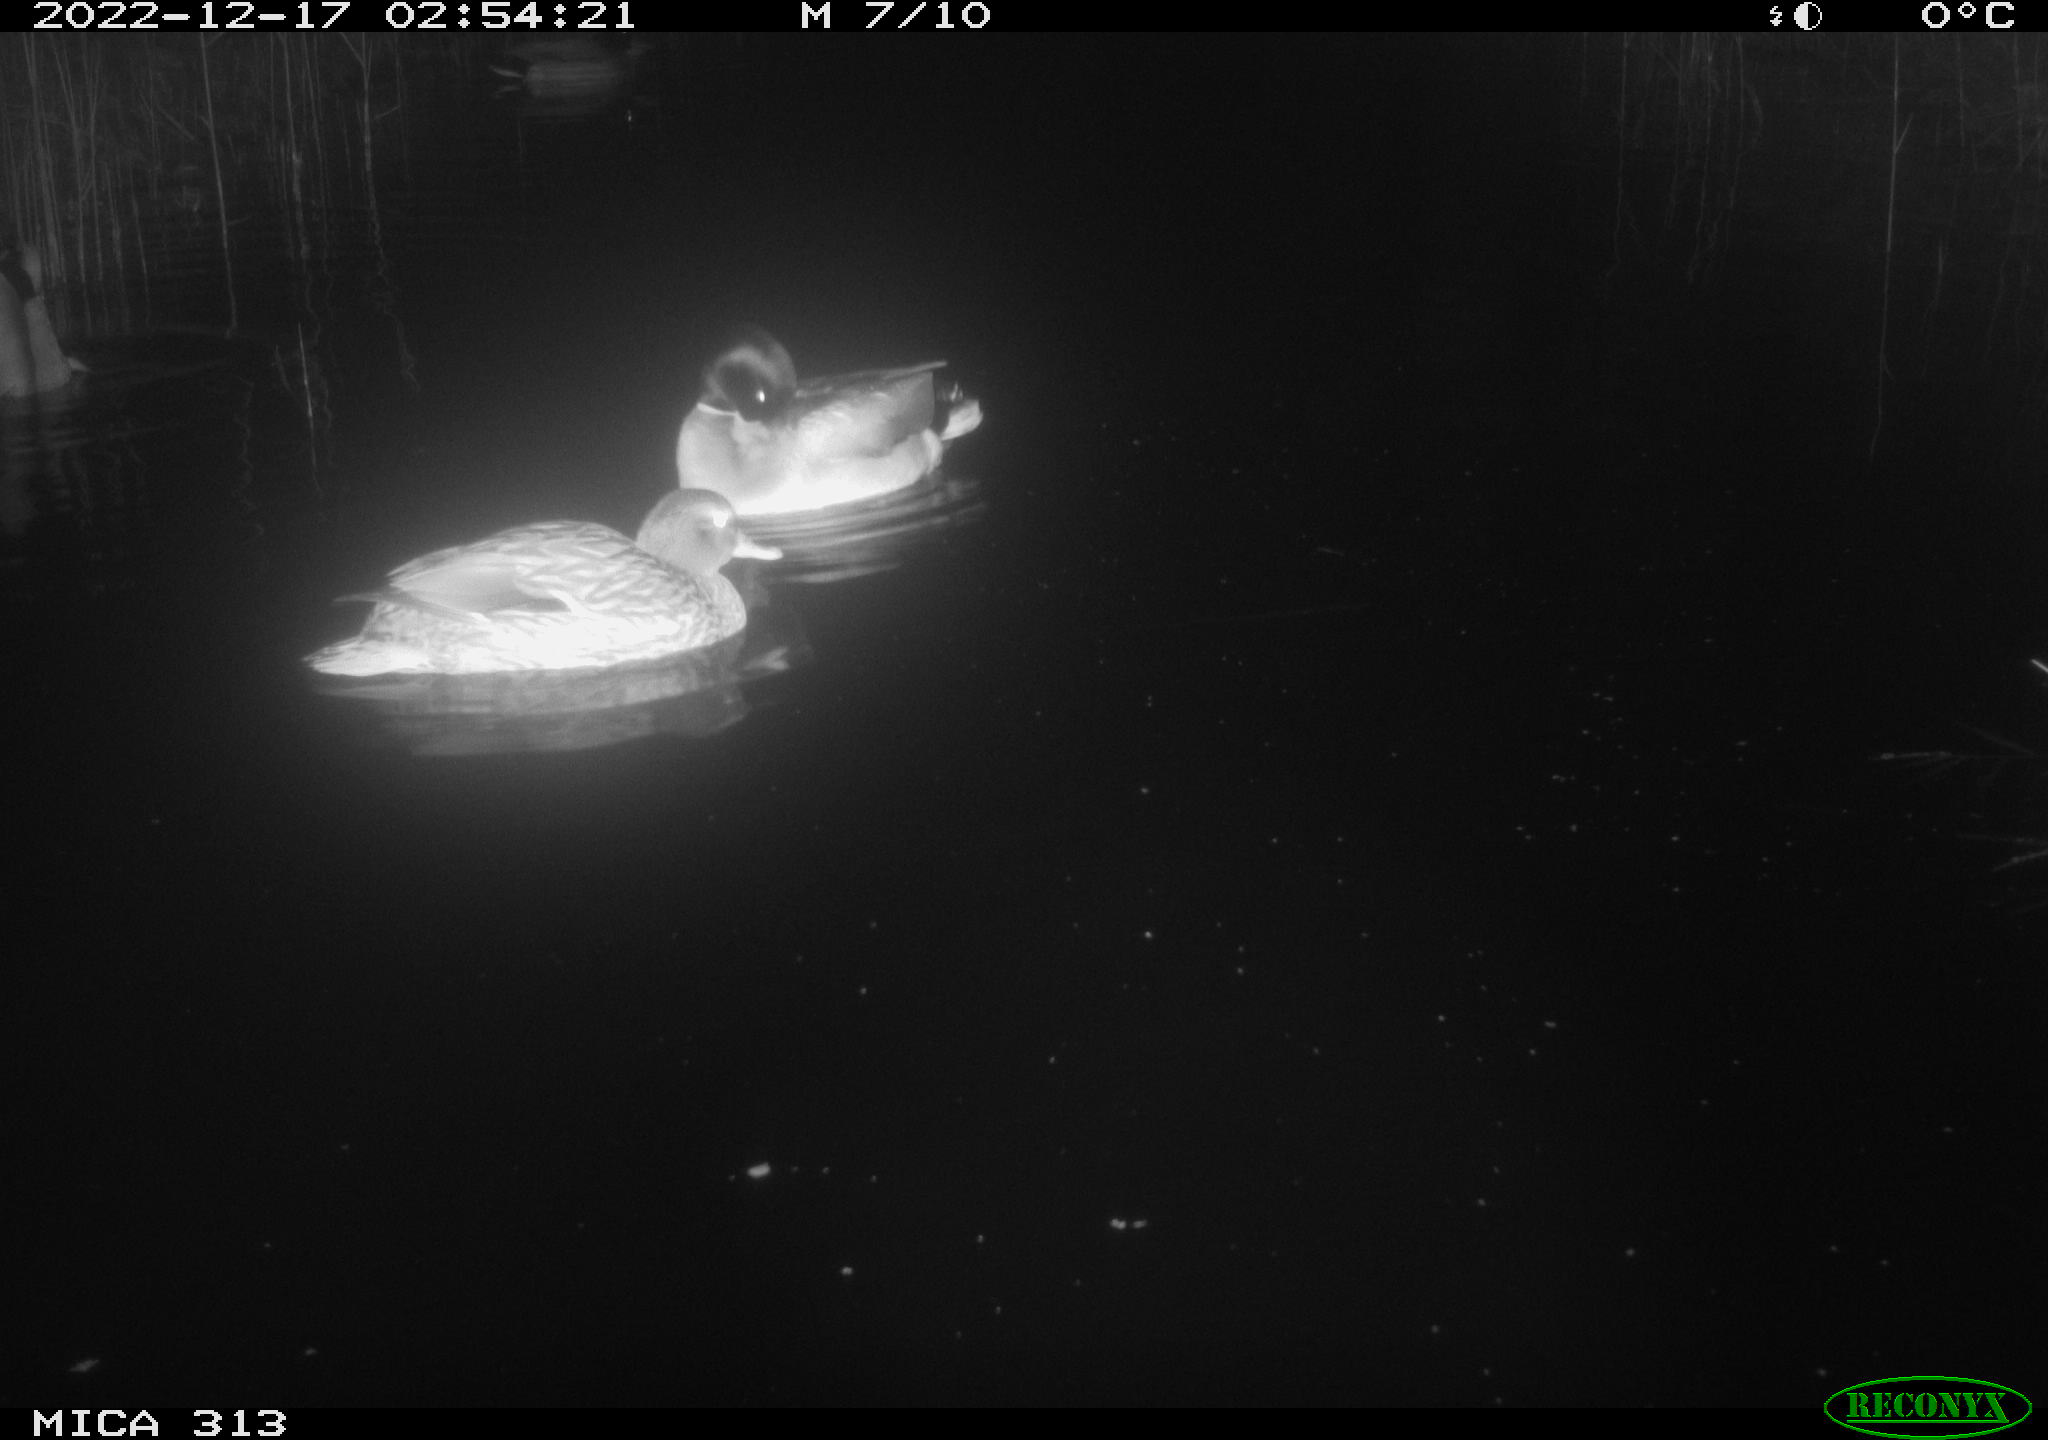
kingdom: Animalia
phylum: Chordata
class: Aves
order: Anseriformes
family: Anatidae
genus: Anas
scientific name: Anas
